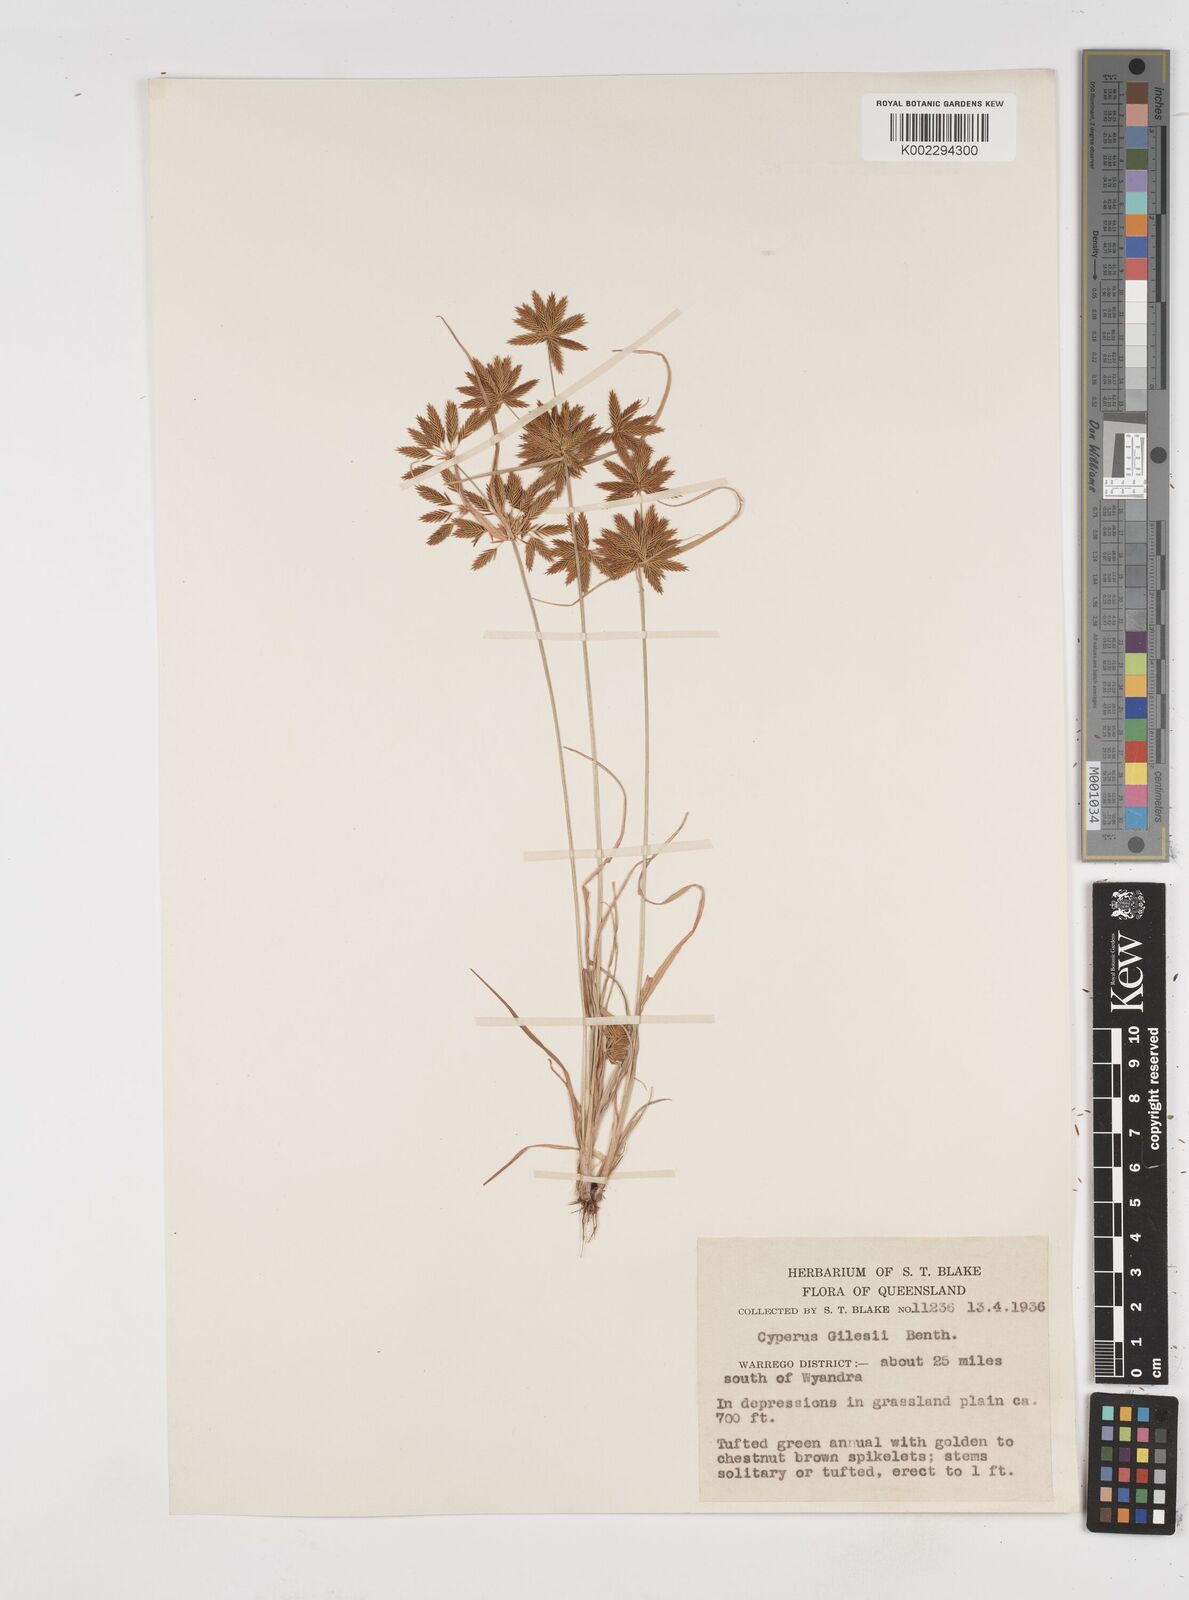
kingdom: Plantae
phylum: Tracheophyta
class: Liliopsida
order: Poales
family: Cyperaceae
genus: Cyperus
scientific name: Cyperus gilesii
